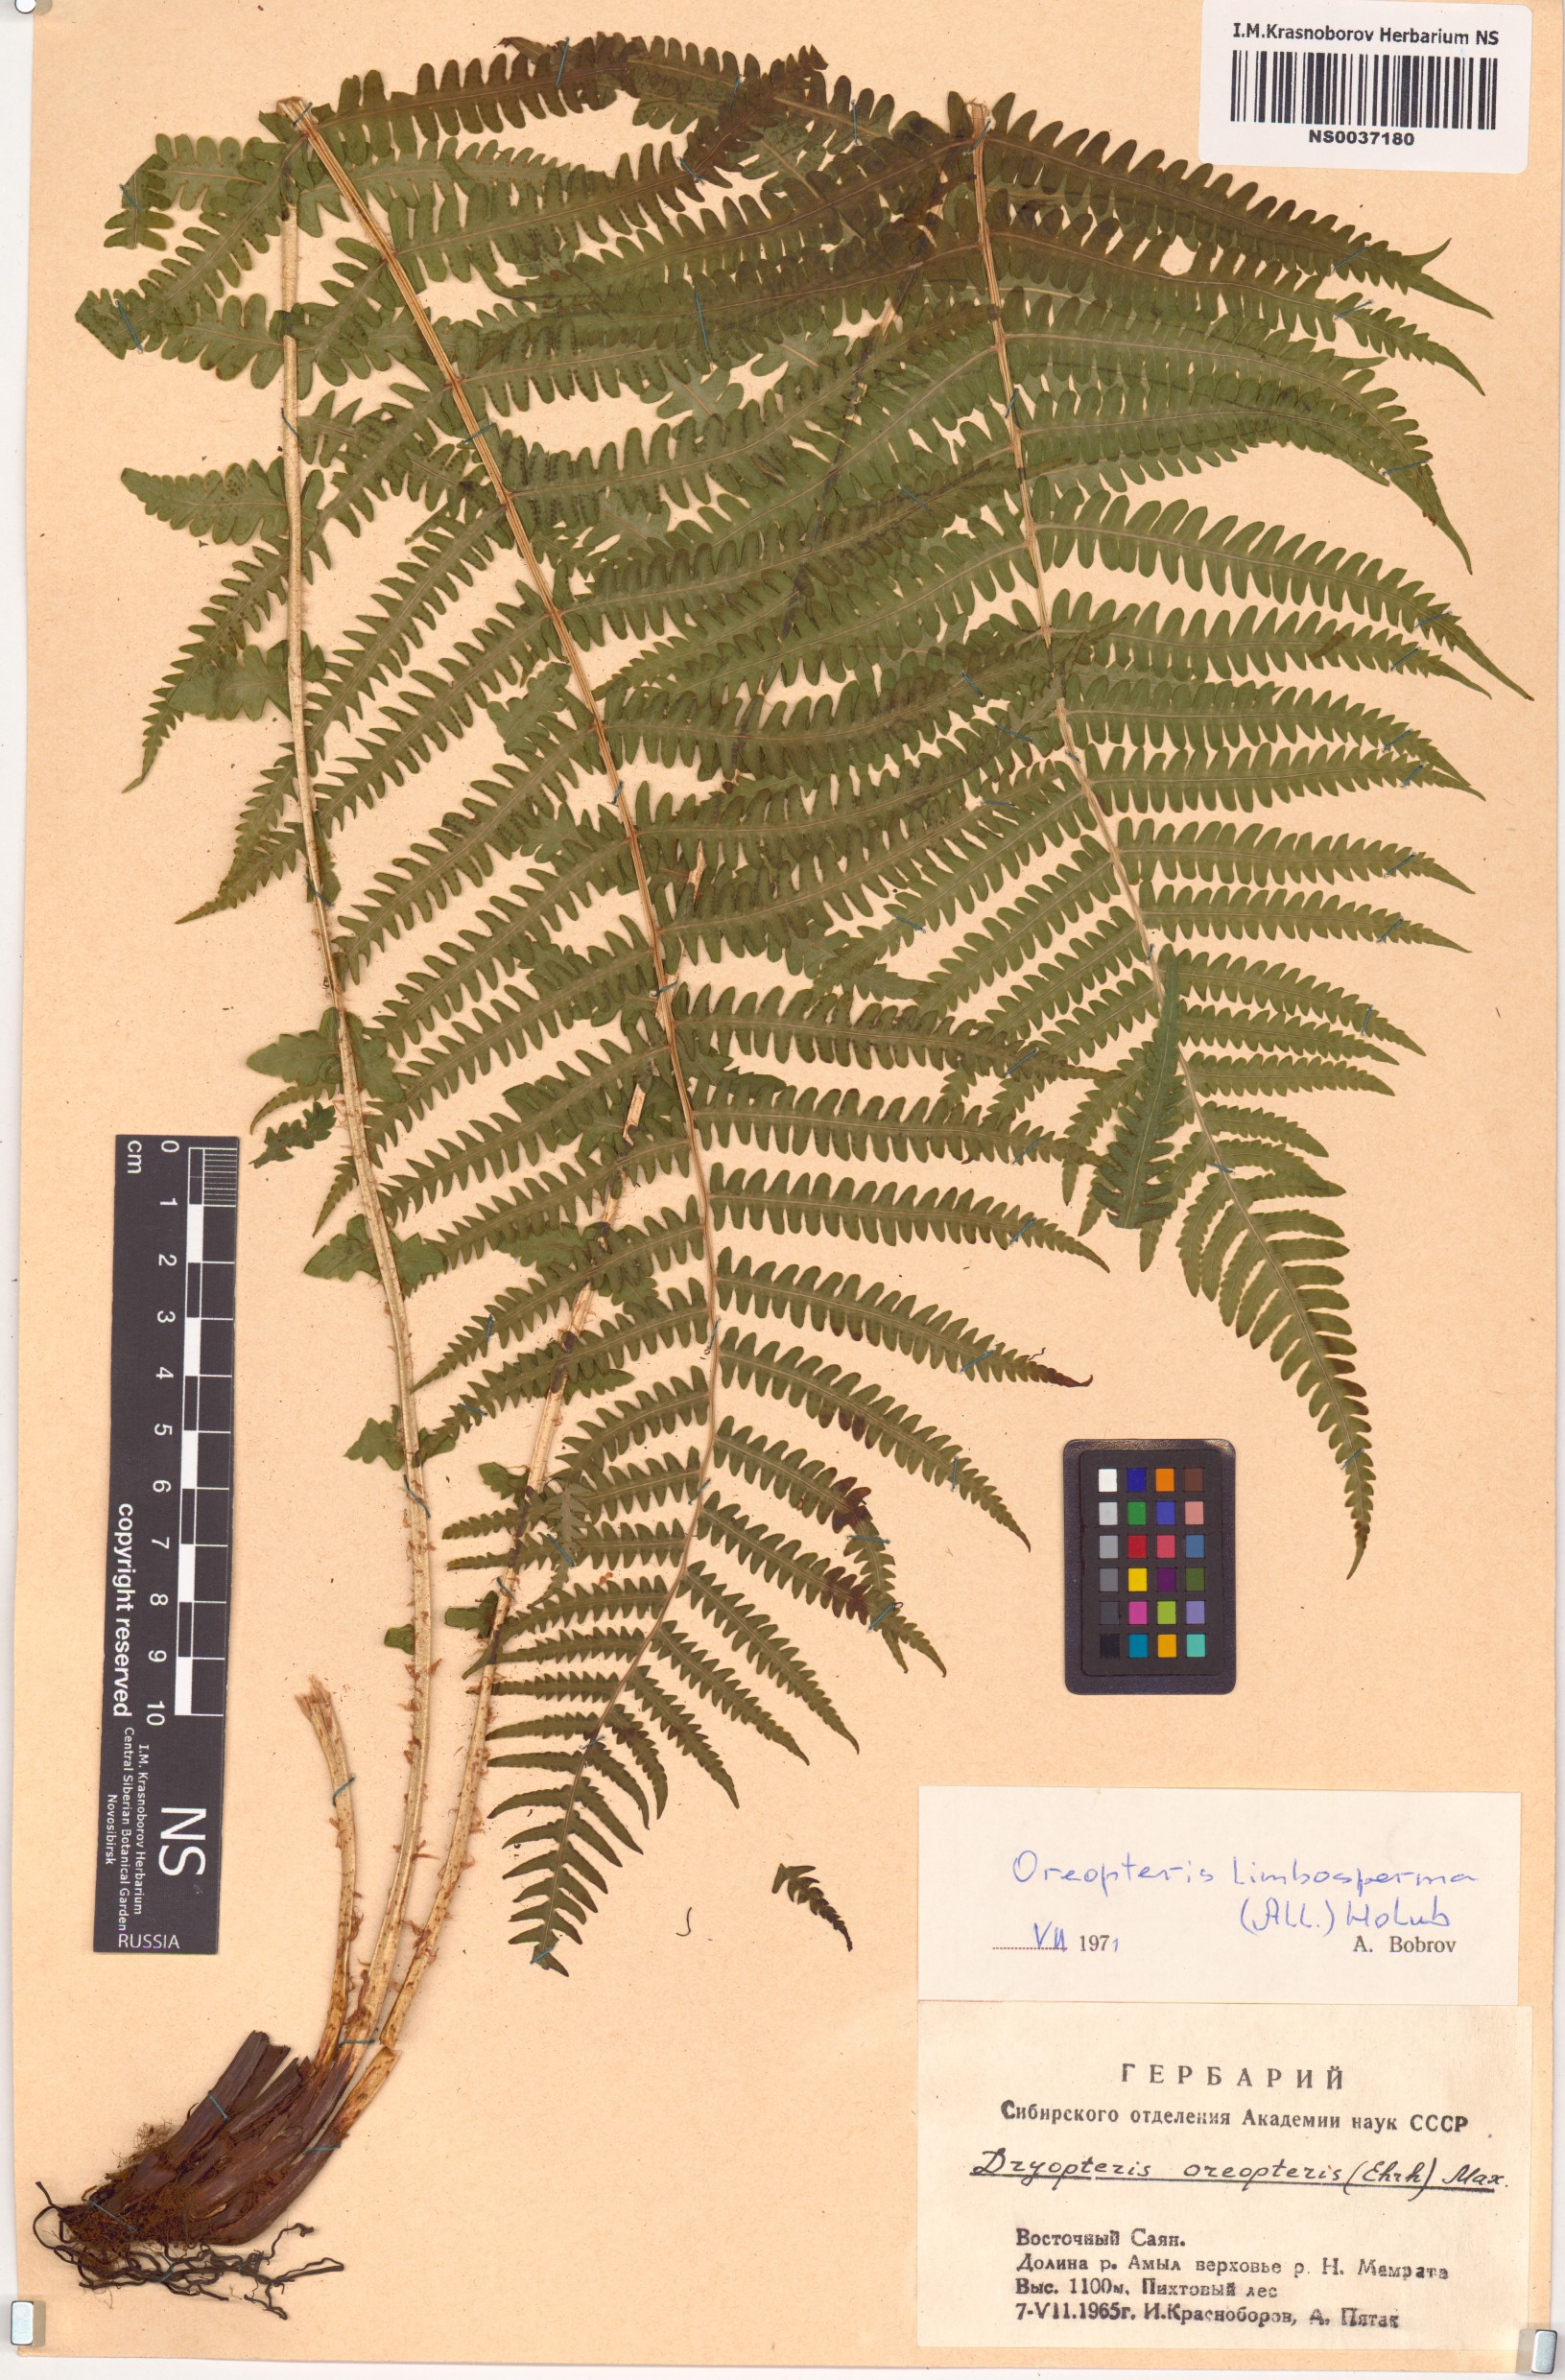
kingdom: Plantae
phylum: Tracheophyta
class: Polypodiopsida
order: Polypodiales
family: Thelypteridaceae
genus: Oreopteris
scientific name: Oreopteris limbosperma
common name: Lemon-scented fern
